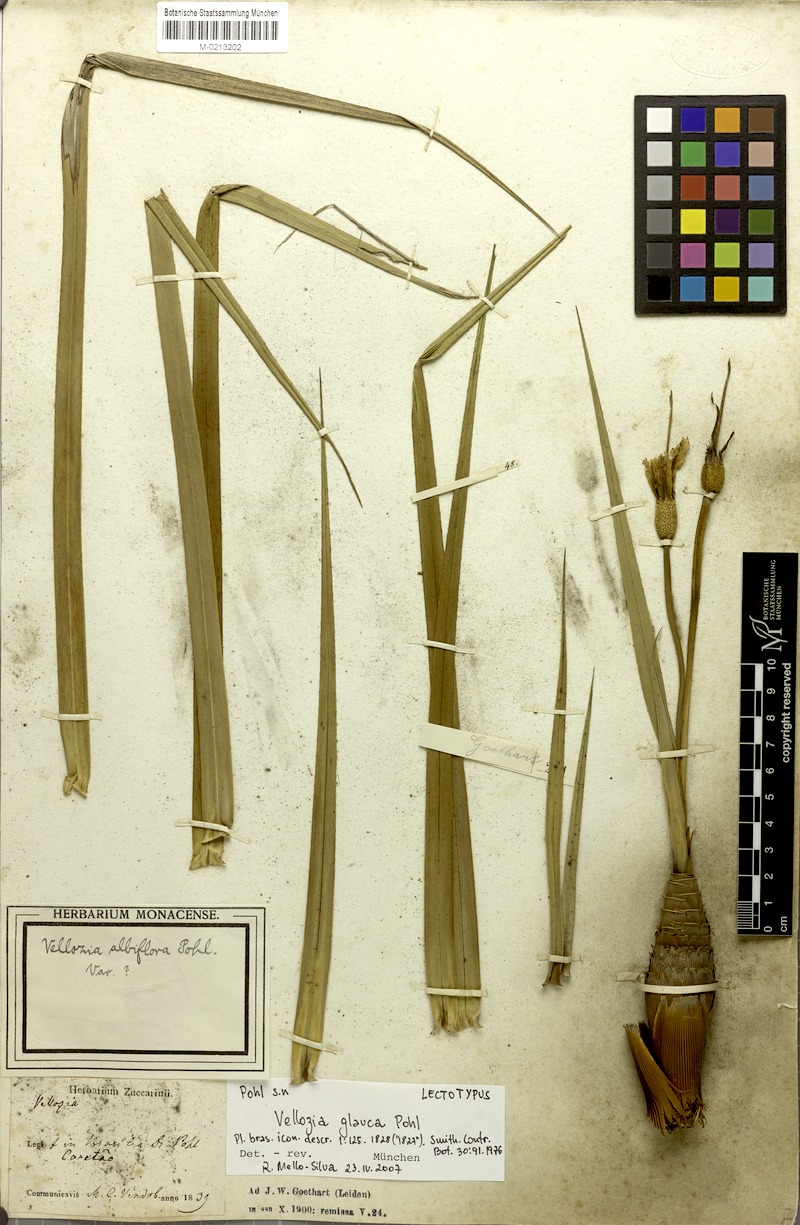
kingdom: Plantae
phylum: Tracheophyta
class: Liliopsida
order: Pandanales
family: Velloziaceae
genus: Vellozia
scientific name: Vellozia glauca
